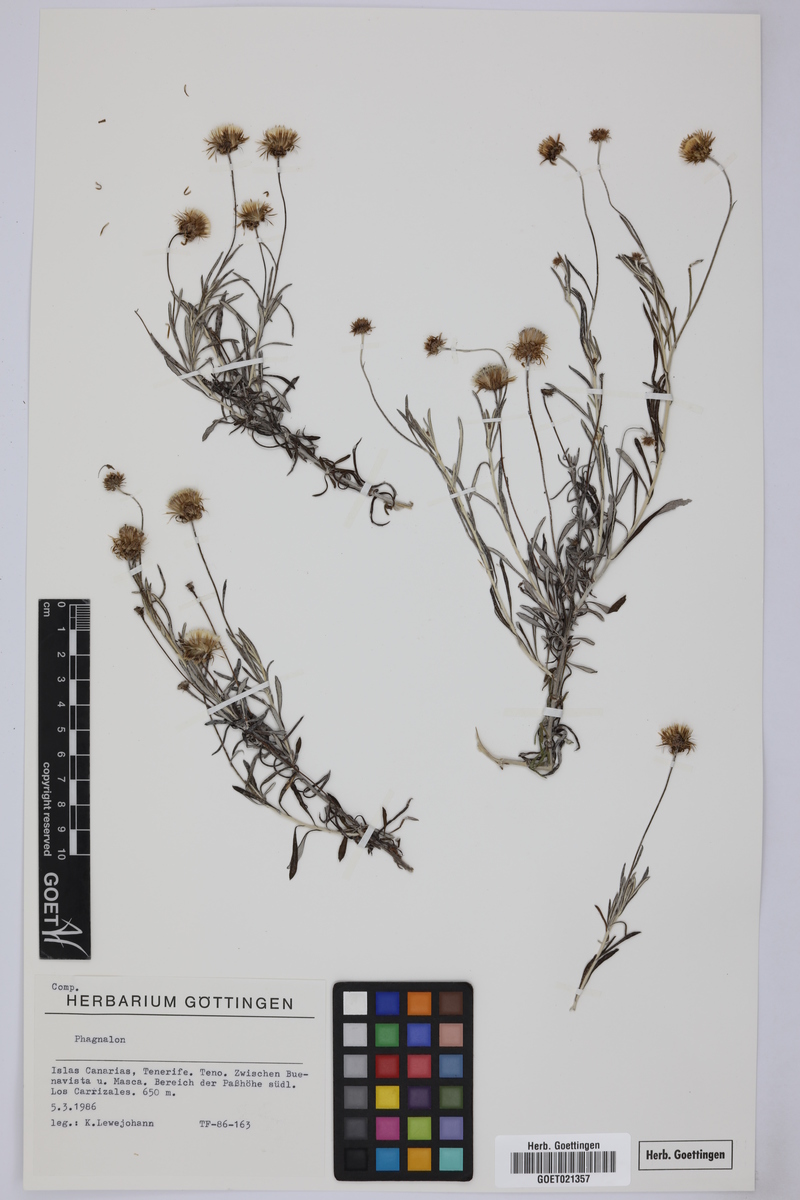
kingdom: Plantae
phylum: Tracheophyta
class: Magnoliopsida
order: Asterales
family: Asteraceae
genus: Phagnalon
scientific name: Phagnalon
